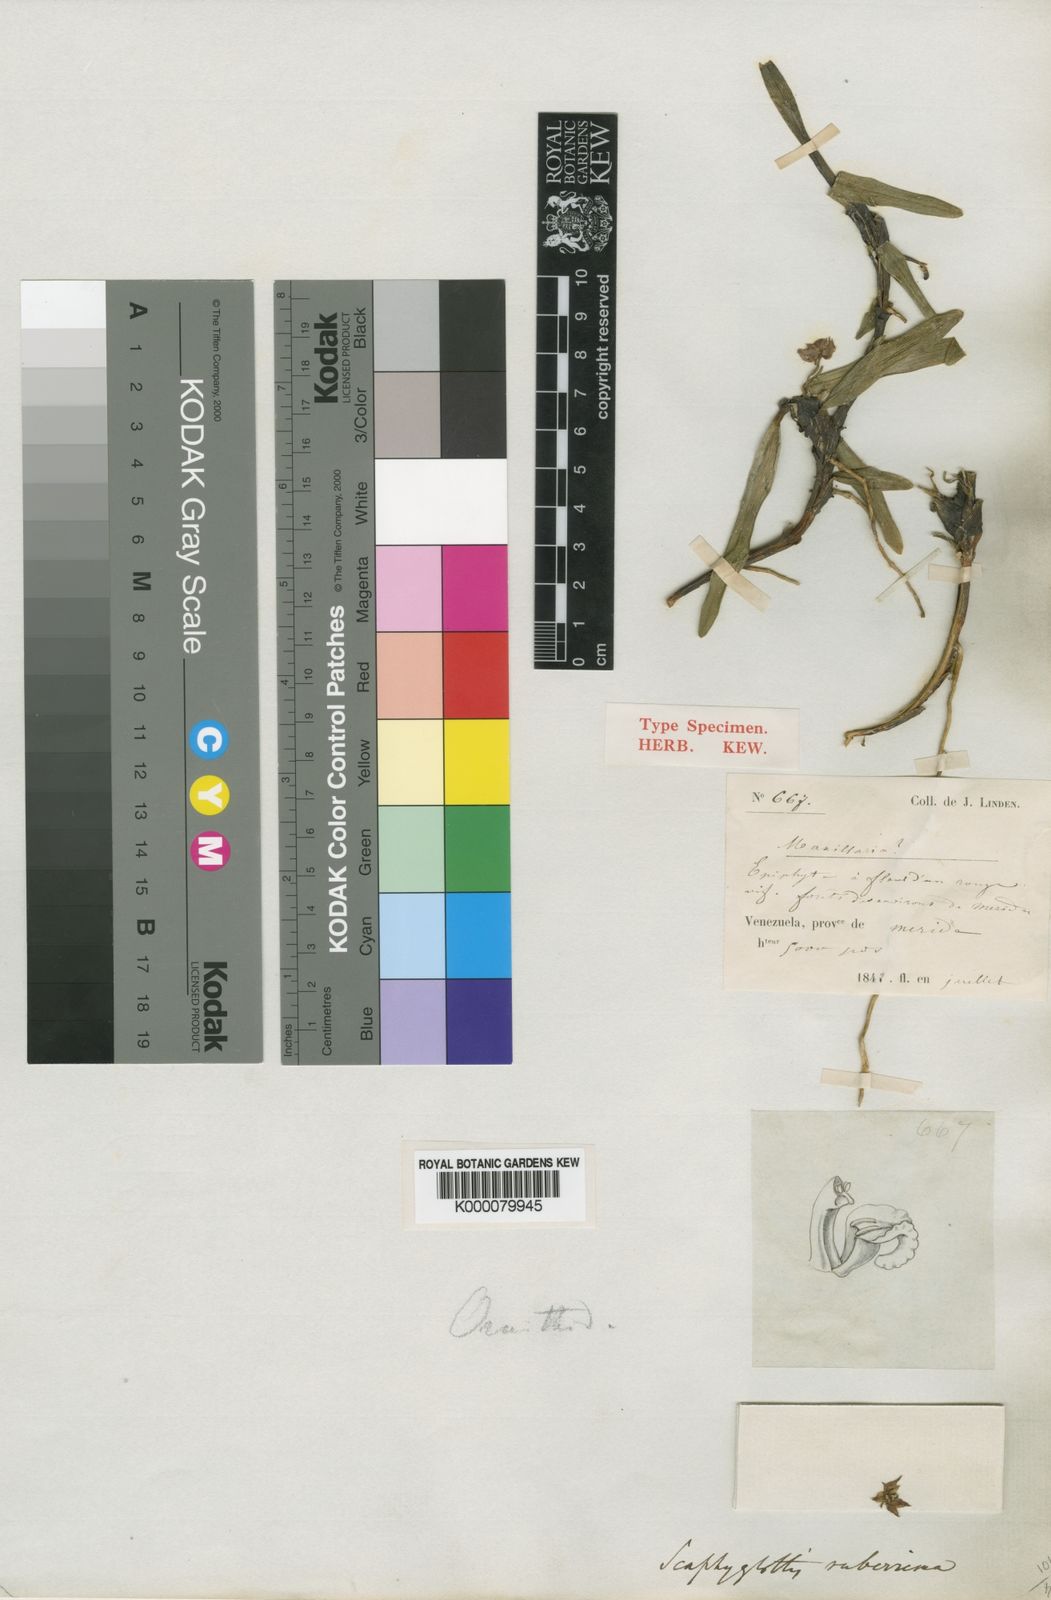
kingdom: Plantae
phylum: Tracheophyta
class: Liliopsida
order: Asparagales
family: Orchidaceae
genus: Maxillaria
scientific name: Maxillaria ruberrima
